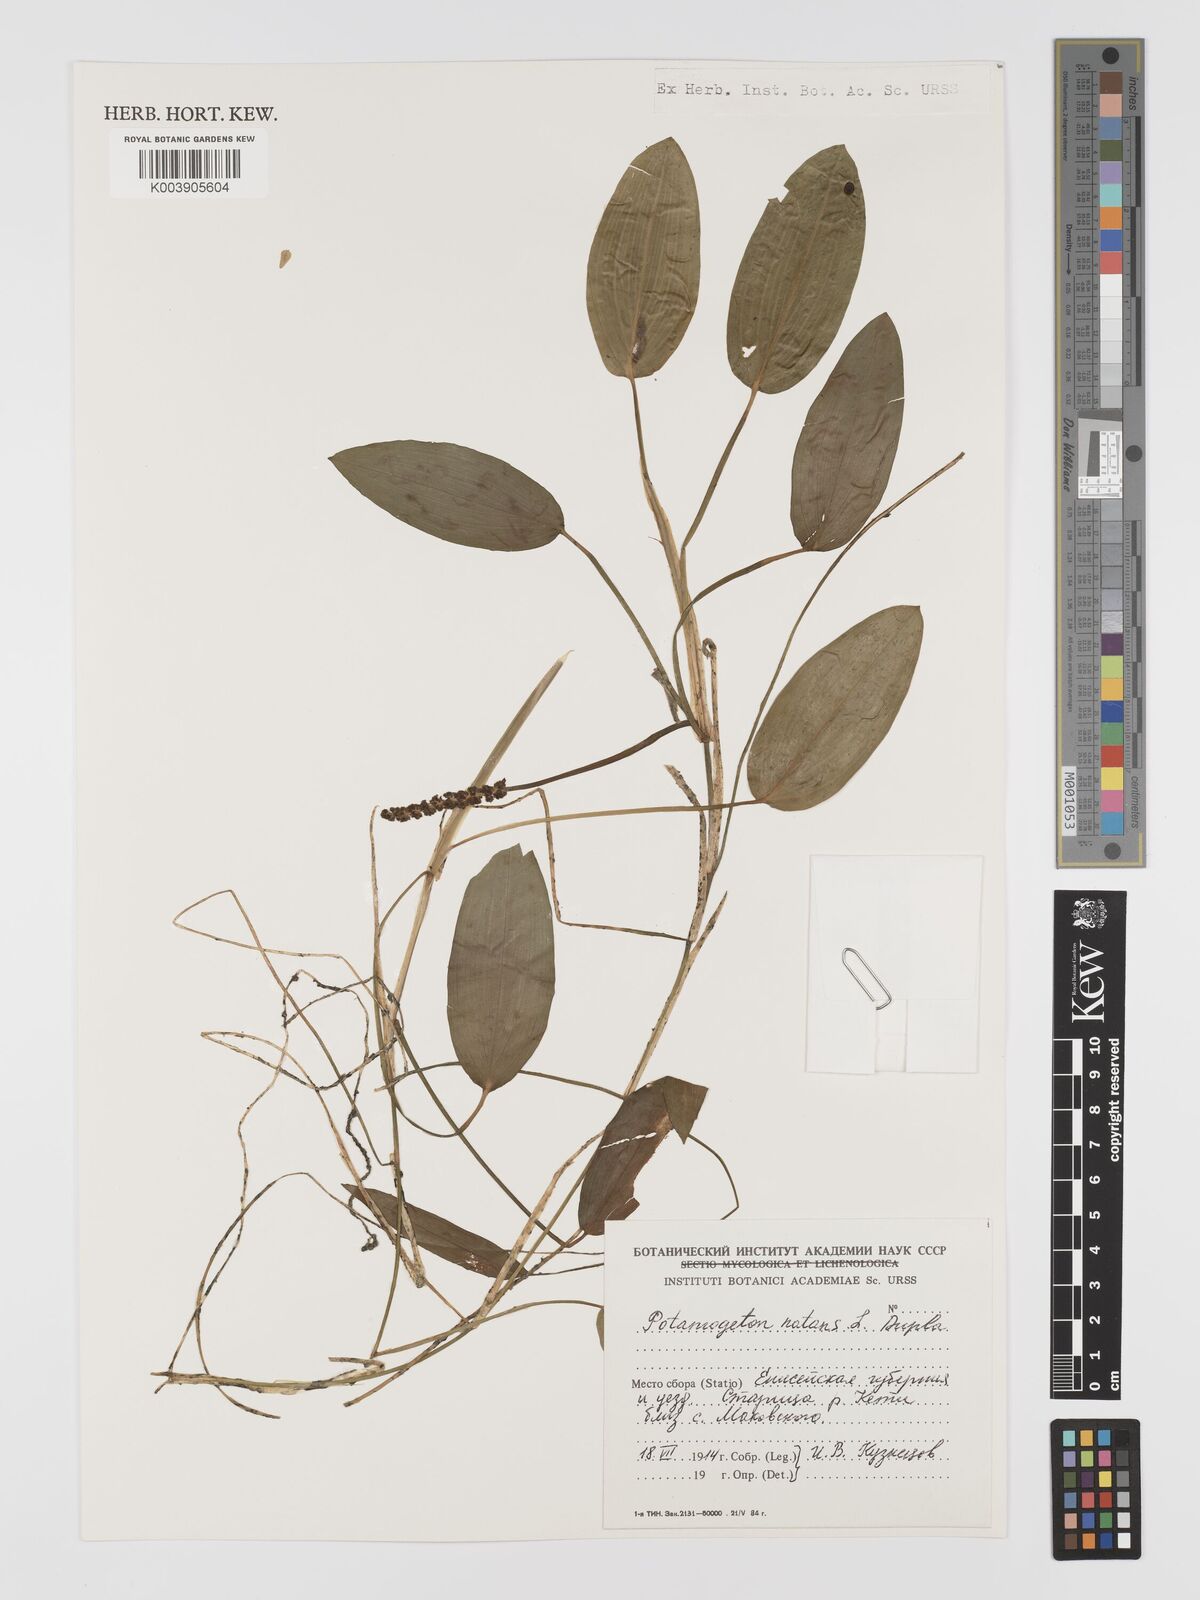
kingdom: Plantae
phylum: Tracheophyta
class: Liliopsida
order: Alismatales
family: Potamogetonaceae
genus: Potamogeton
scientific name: Potamogeton natans
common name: Broad-leaved pondweed
